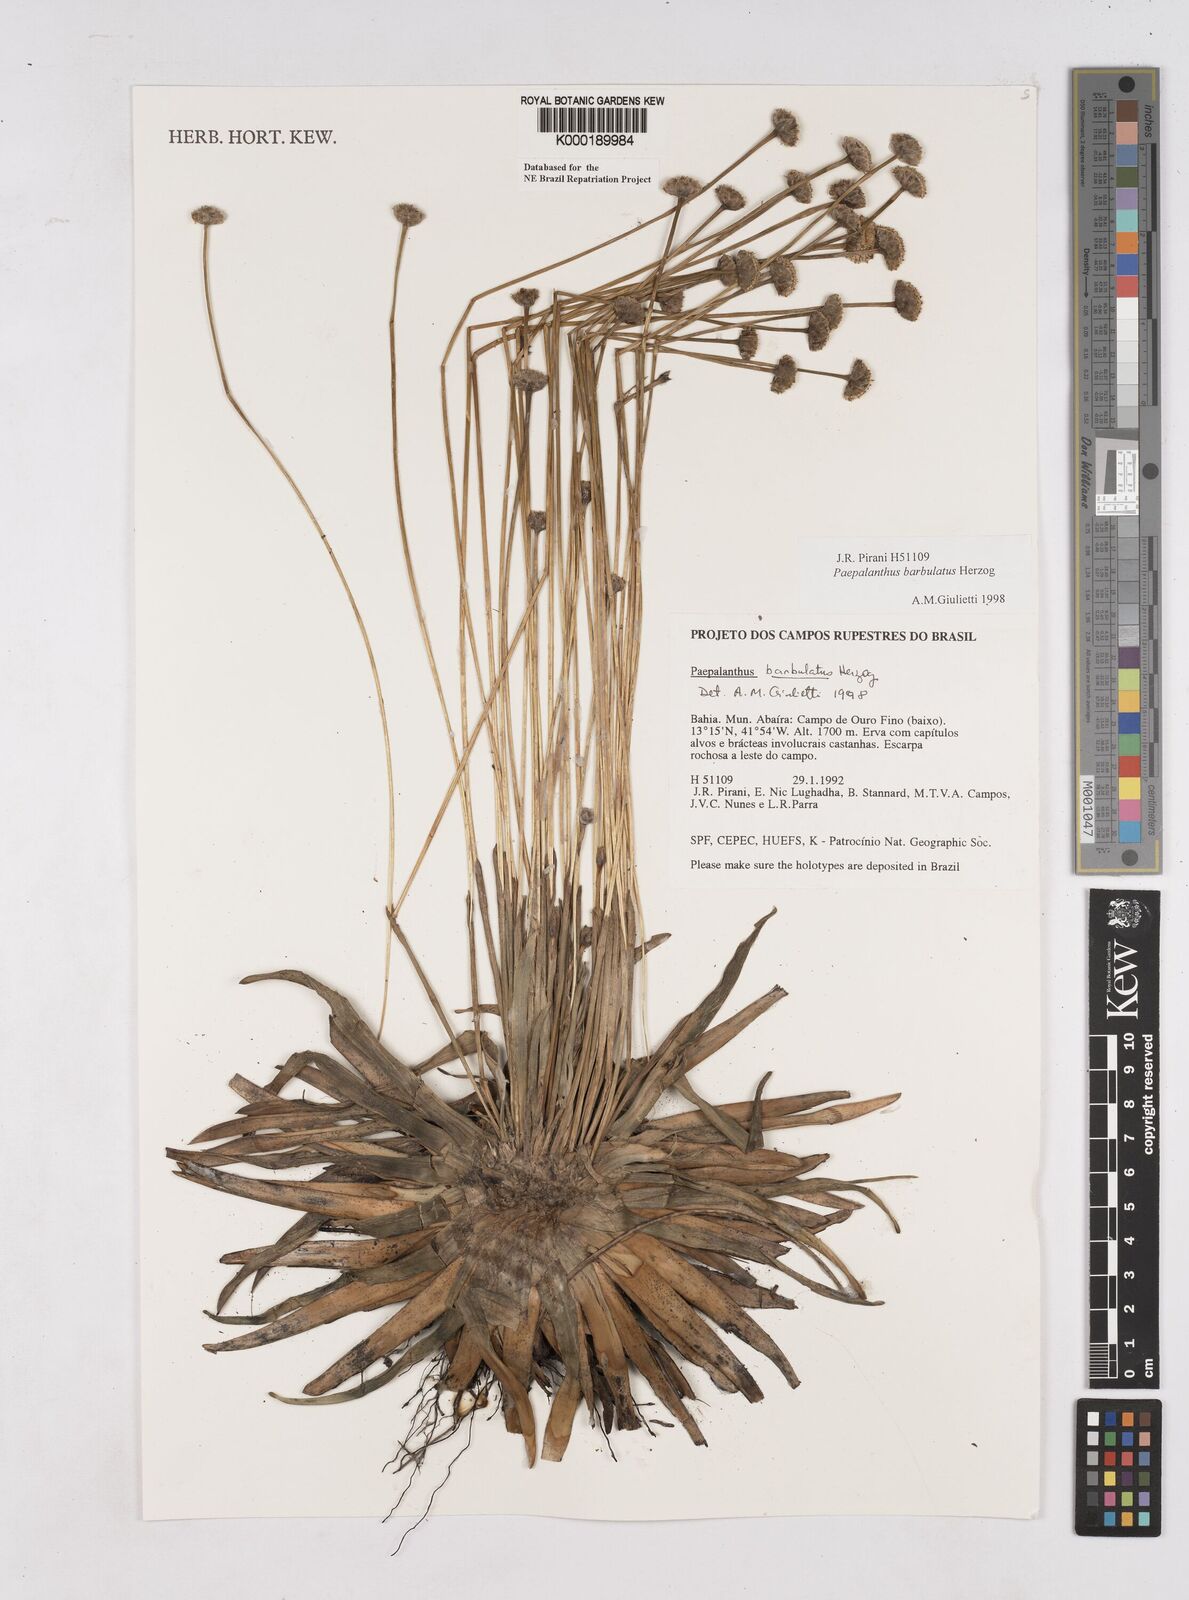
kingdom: Plantae
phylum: Tracheophyta
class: Liliopsida
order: Poales
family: Eriocaulaceae
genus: Paepalanthus
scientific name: Paepalanthus barbulatus
